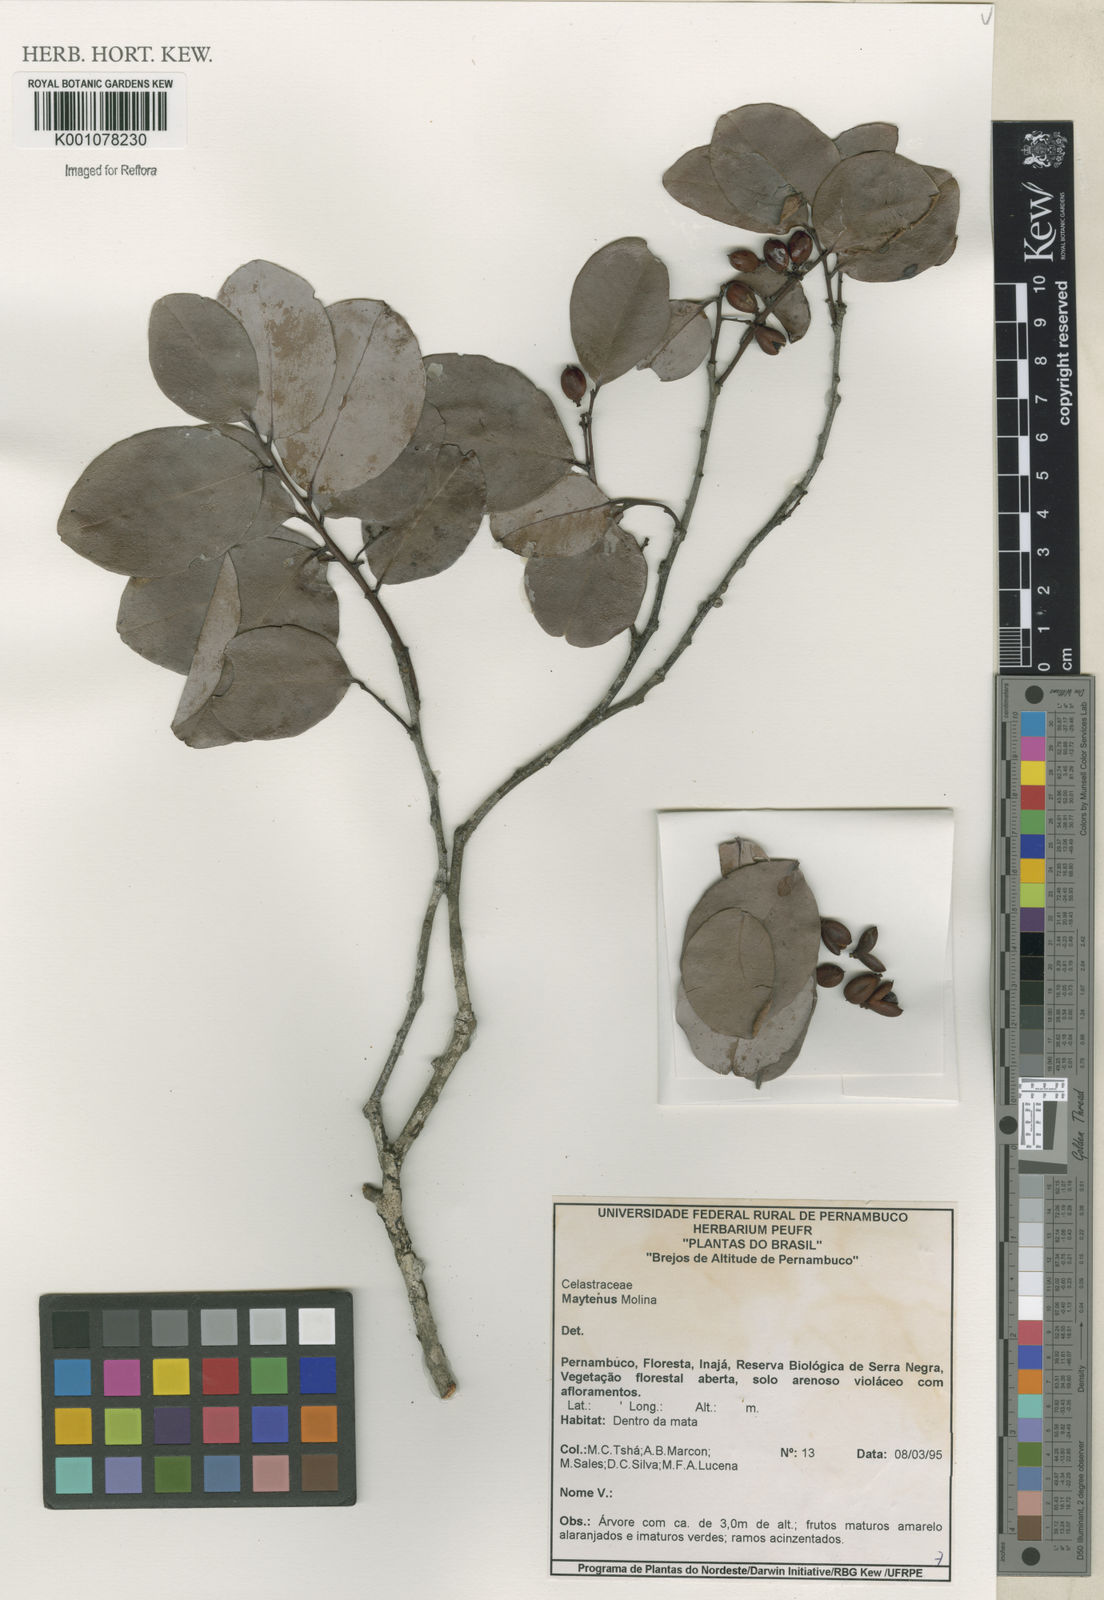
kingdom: Plantae
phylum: Tracheophyta
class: Magnoliopsida
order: Celastrales
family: Celastraceae
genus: Maytenus
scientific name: Maytenus
